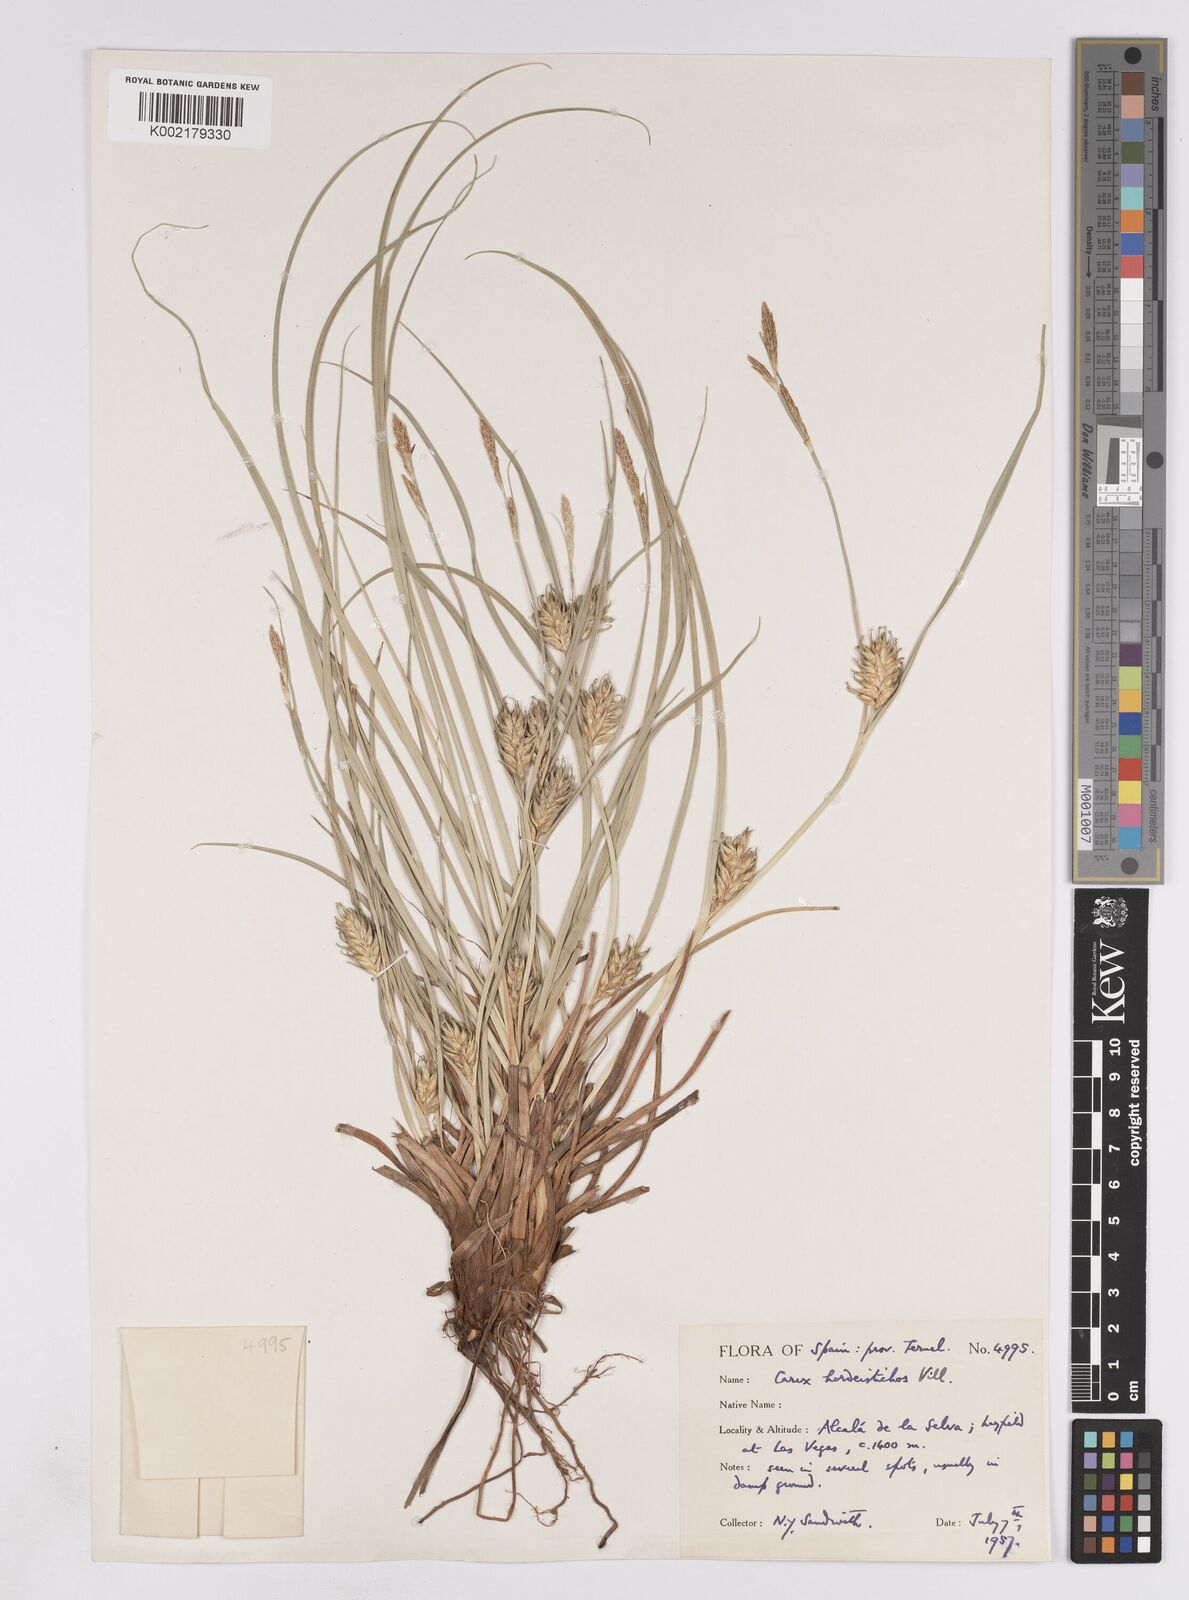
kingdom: Plantae
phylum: Tracheophyta
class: Liliopsida
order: Poales
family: Cyperaceae
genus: Carex
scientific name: Carex hordeistichos
